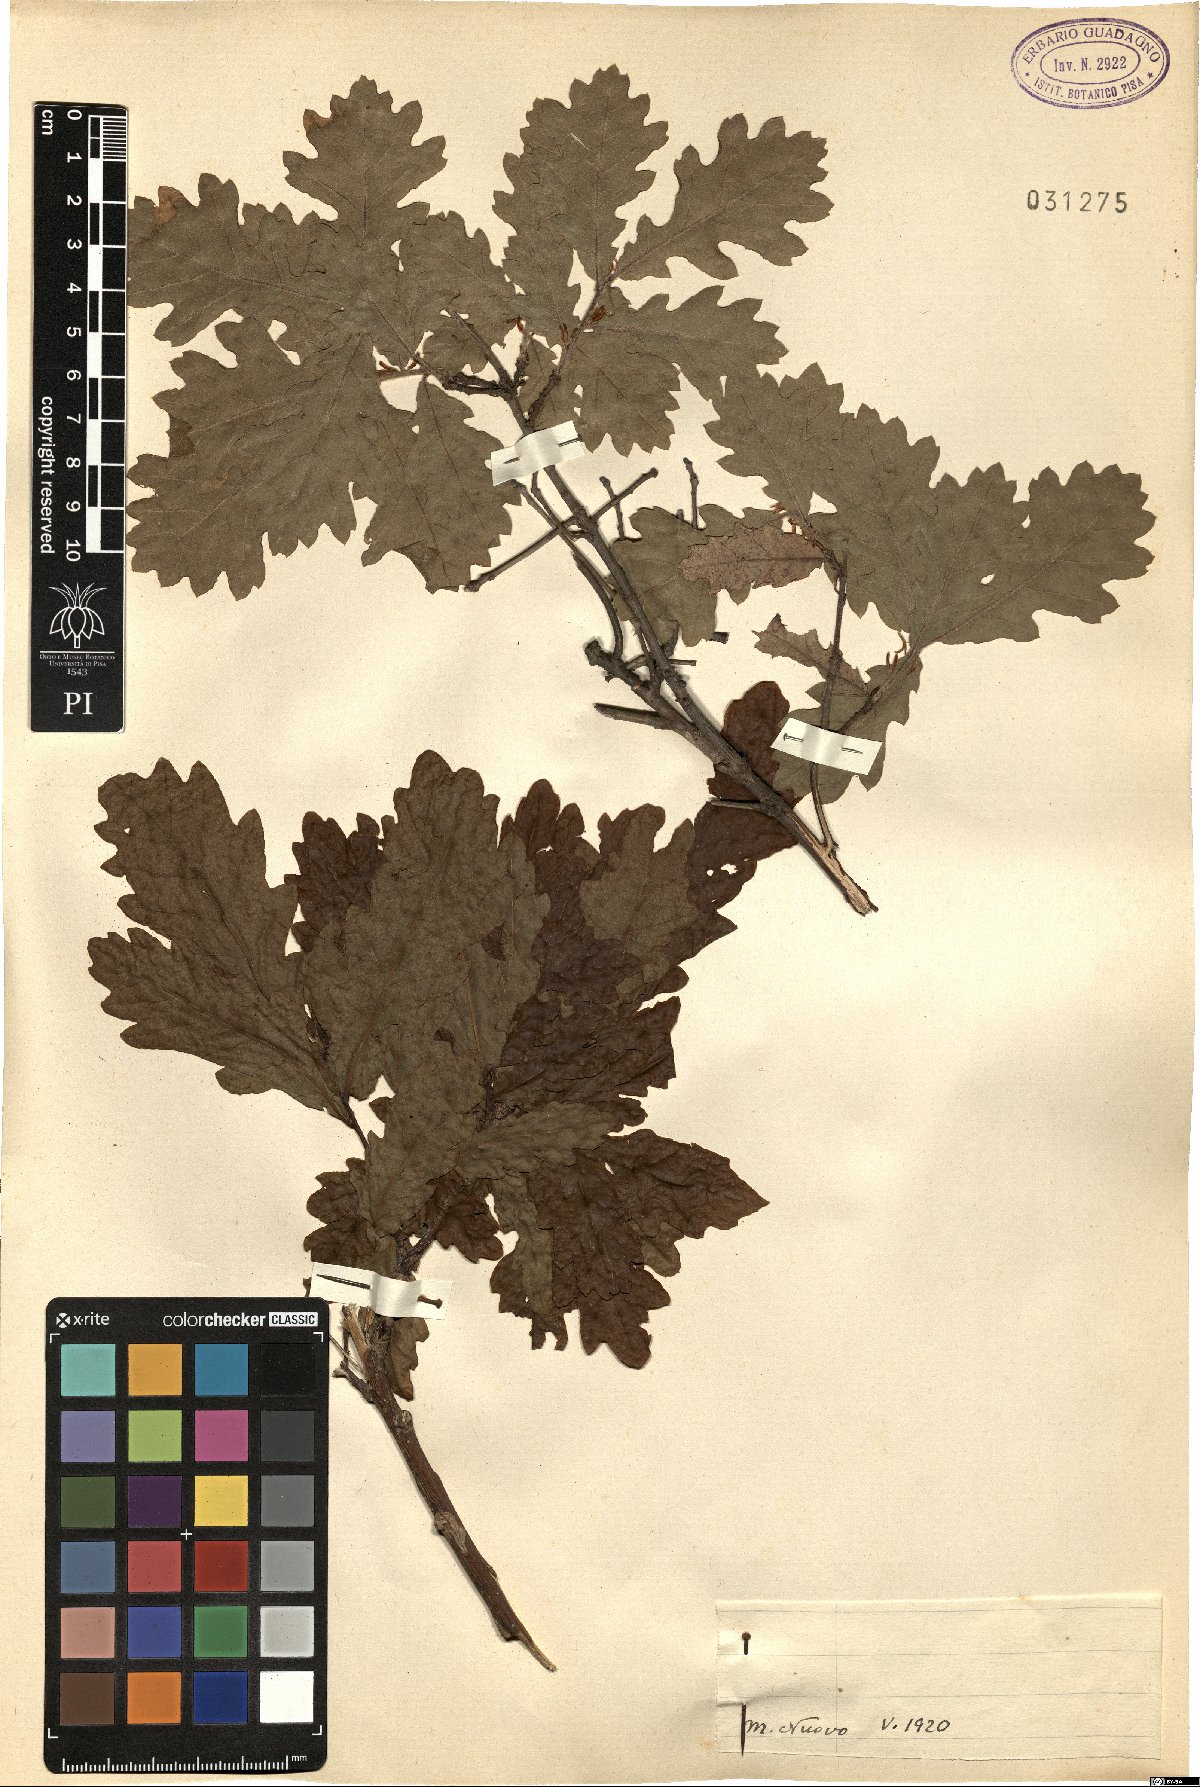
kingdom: Plantae
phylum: Tracheophyta
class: Magnoliopsida
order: Fagales
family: Fagaceae
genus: Quercus
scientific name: Quercus
